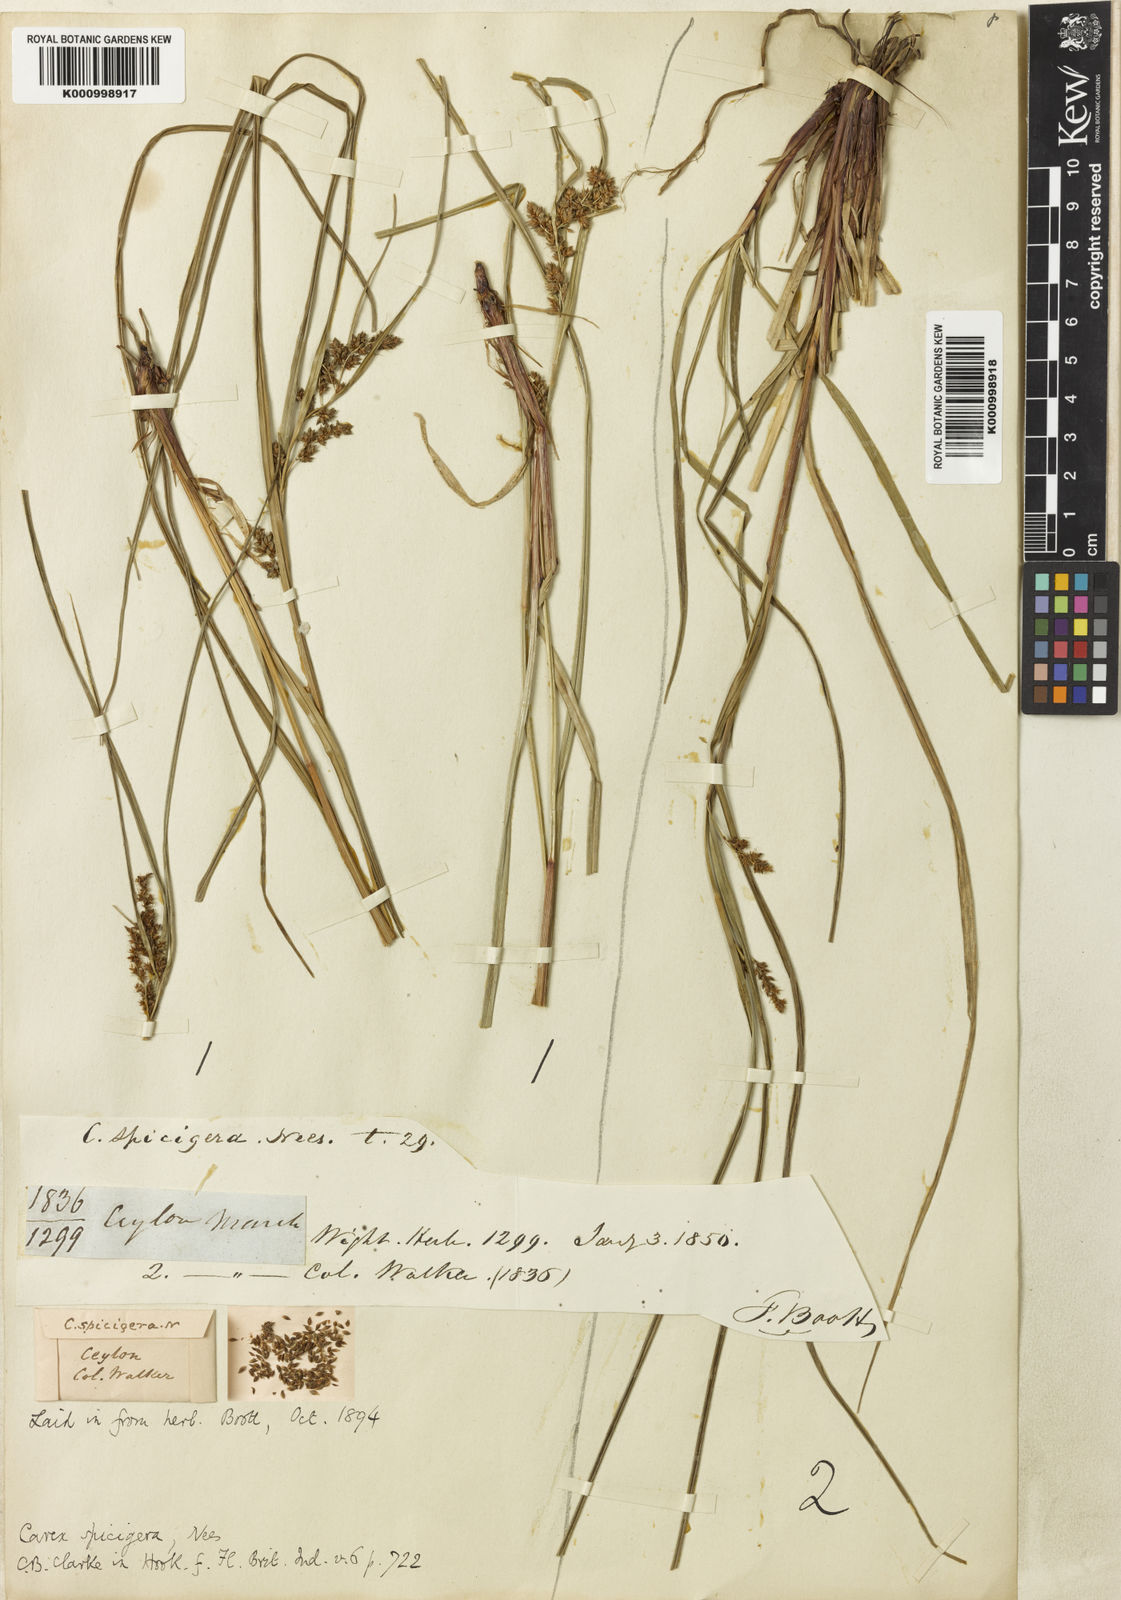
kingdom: Plantae
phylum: Tracheophyta
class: Liliopsida
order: Poales
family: Cyperaceae
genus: Carex
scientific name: Carex spicigera
